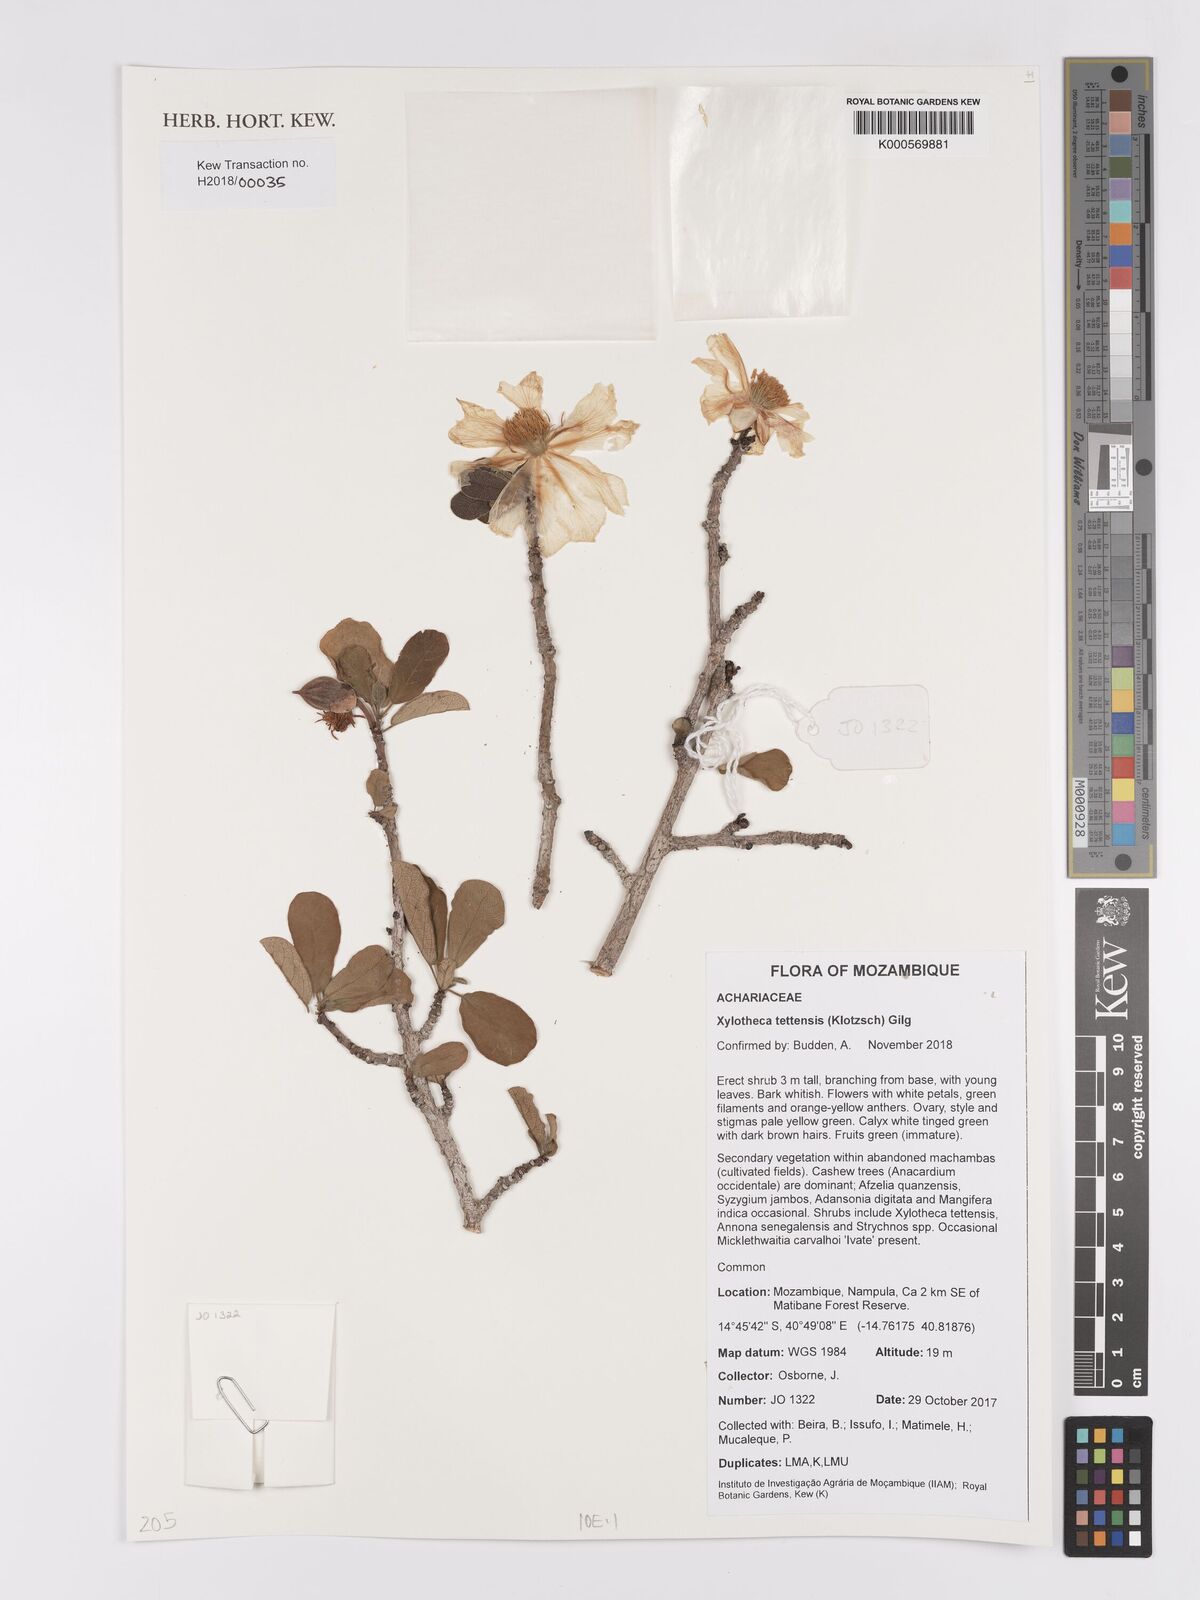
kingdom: Plantae
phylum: Tracheophyta
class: Magnoliopsida
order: Malpighiales
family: Achariaceae
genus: Xylotheca
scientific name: Xylotheca tettensis
